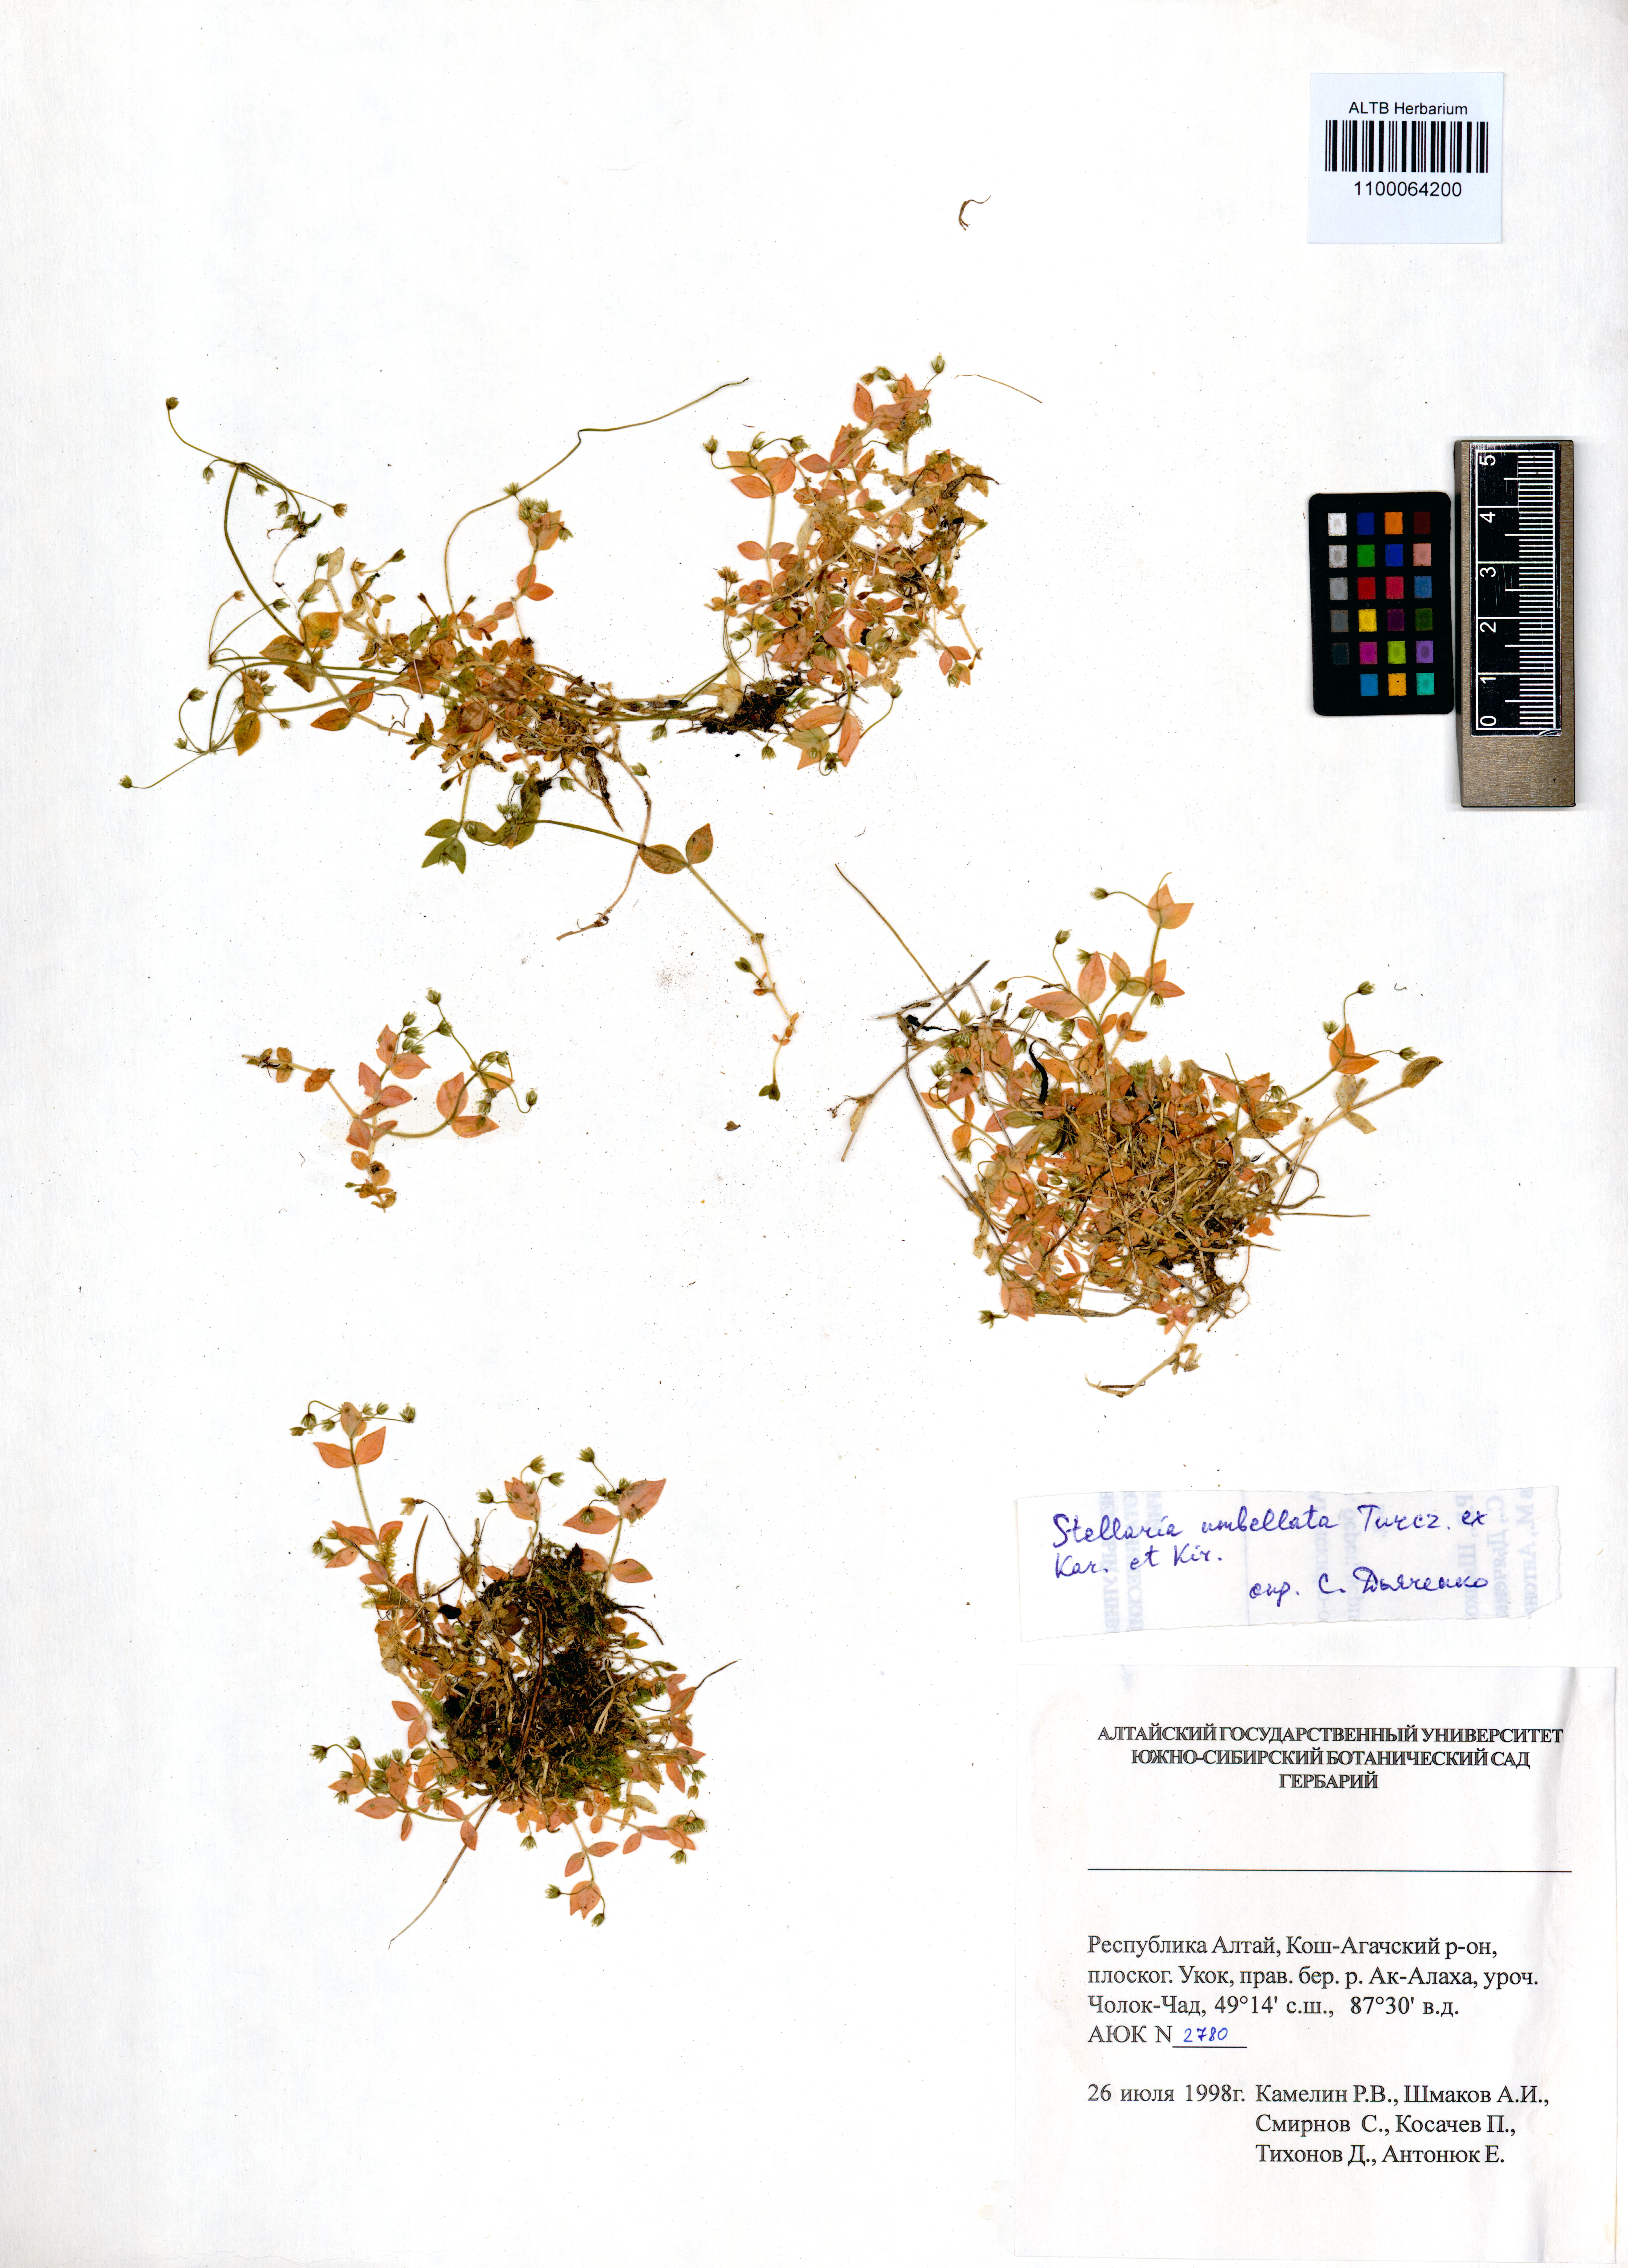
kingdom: Plantae
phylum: Tracheophyta
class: Magnoliopsida
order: Caryophyllales
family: Caryophyllaceae
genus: Stellaria
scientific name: Stellaria irrigua
